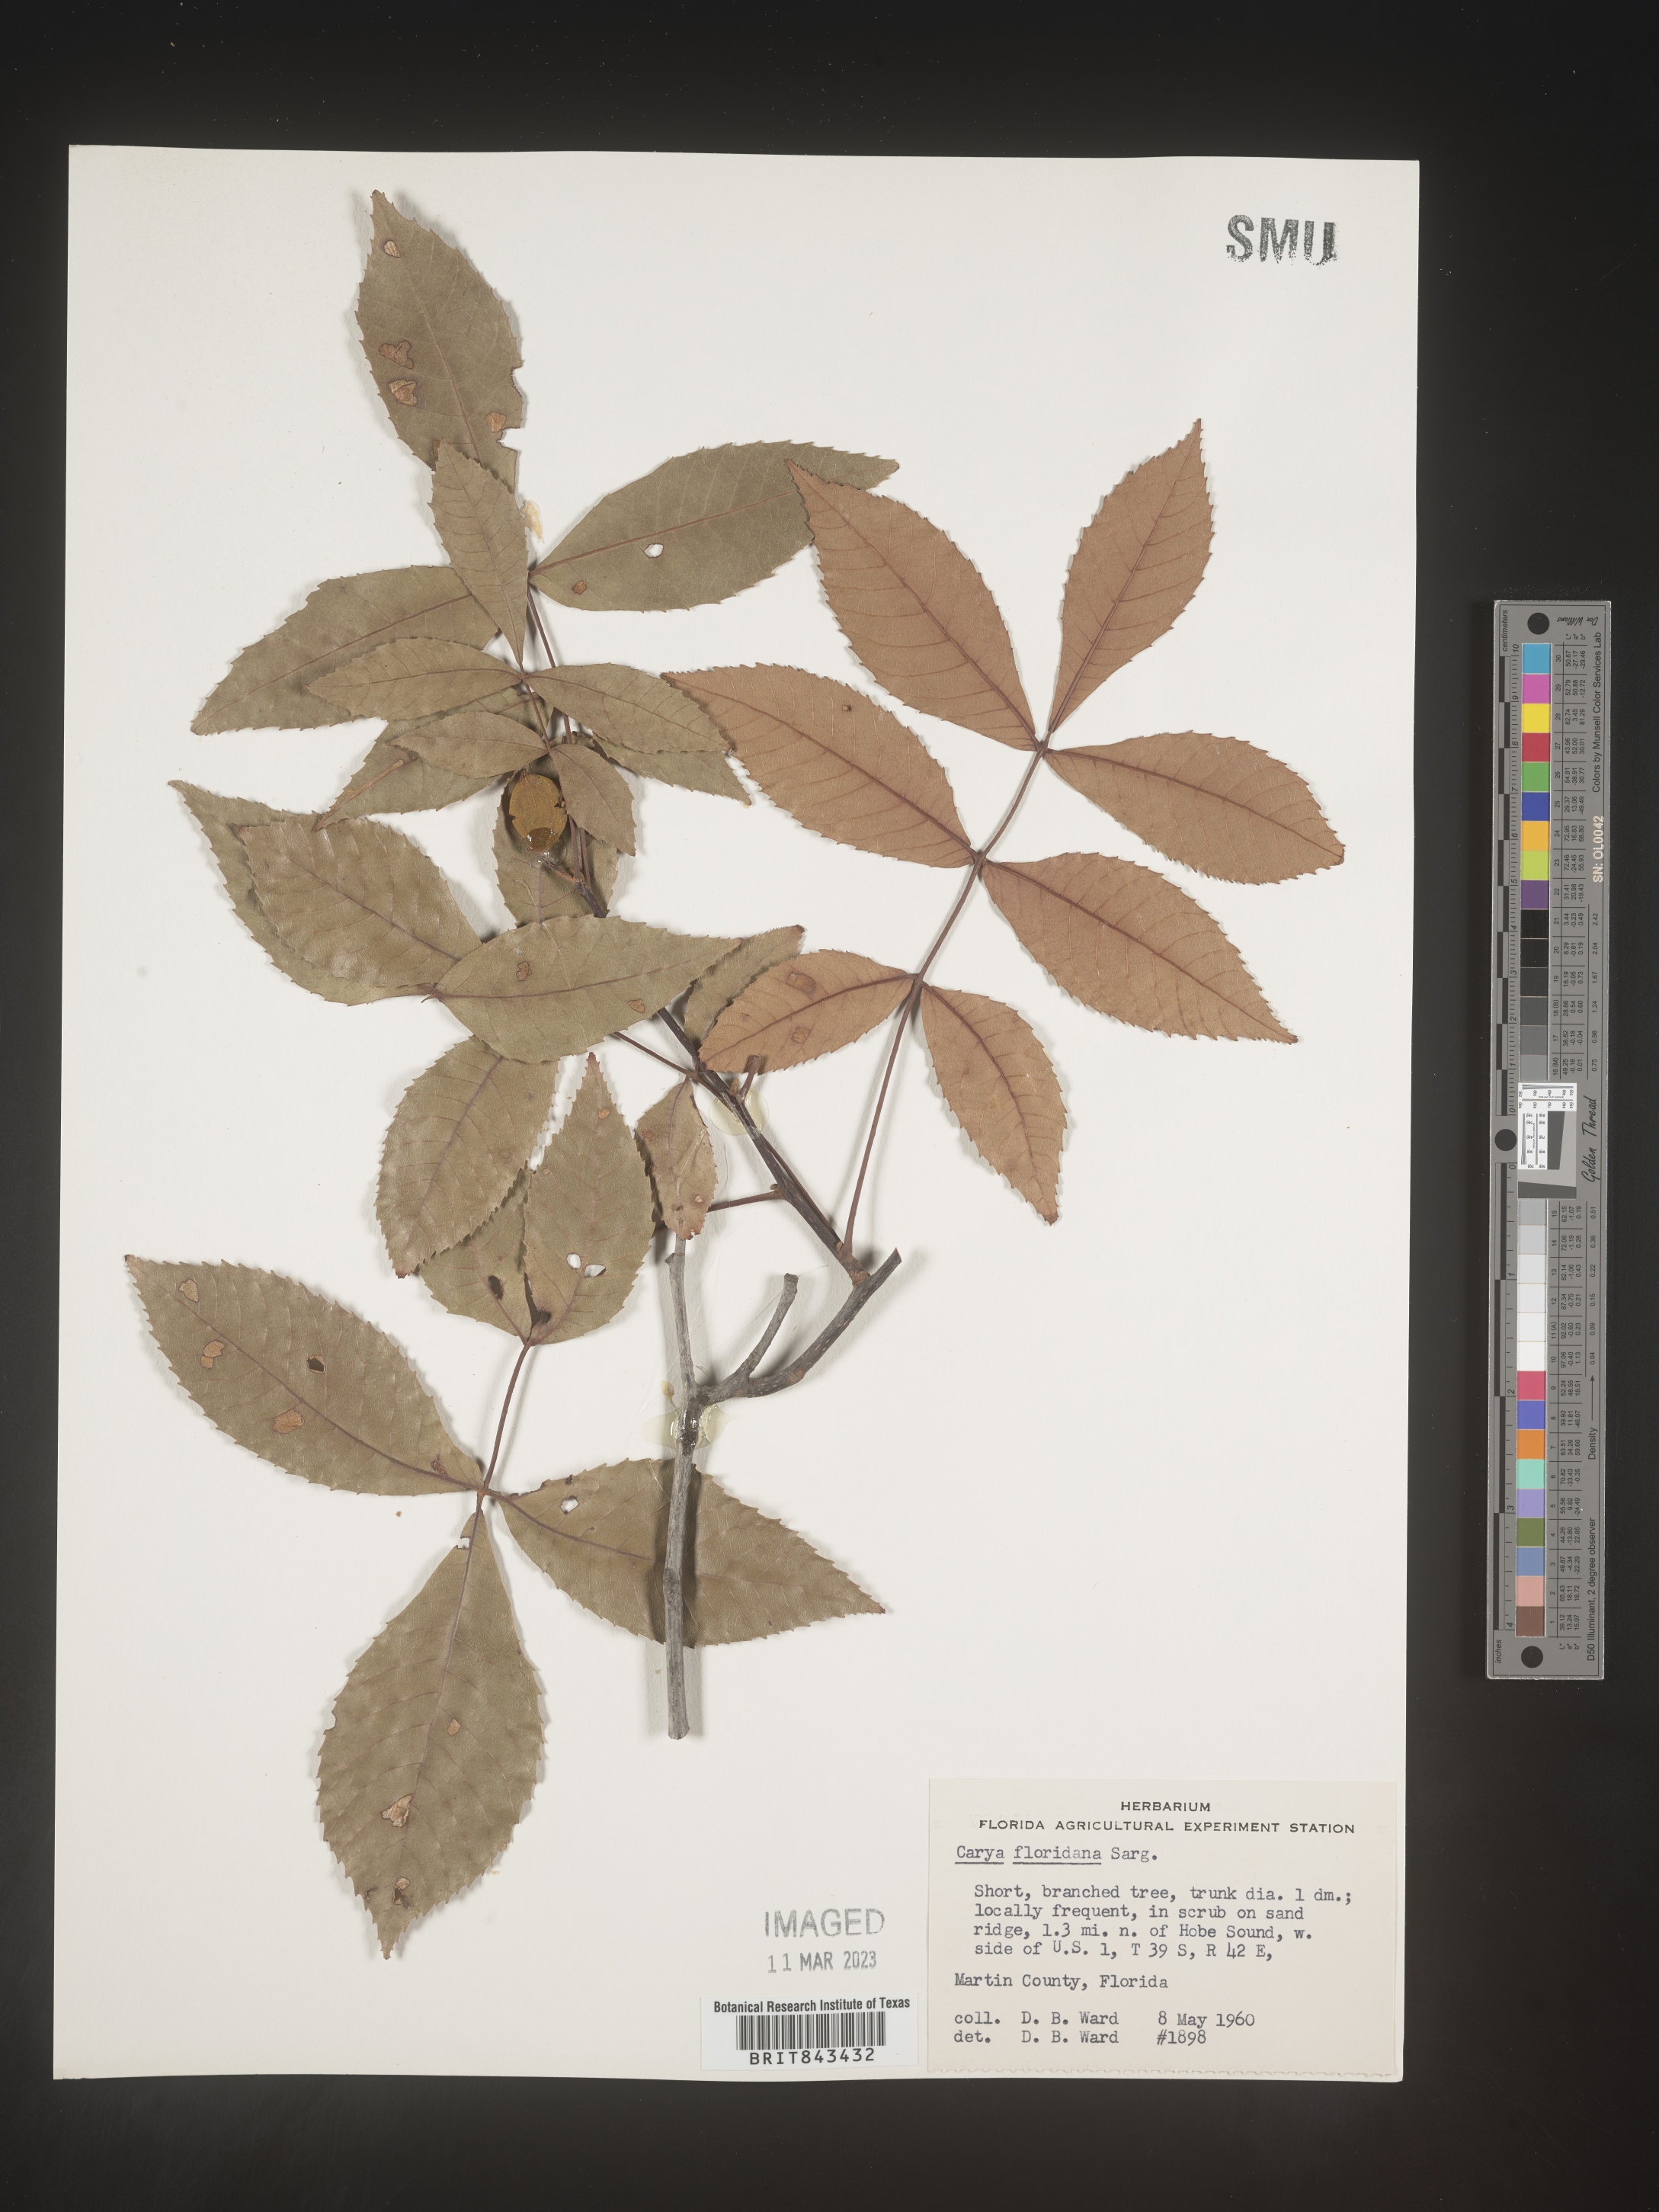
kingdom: Plantae
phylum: Tracheophyta
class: Magnoliopsida
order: Fagales
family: Juglandaceae
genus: Carya
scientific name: Carya glabra
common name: Pignut hickory
